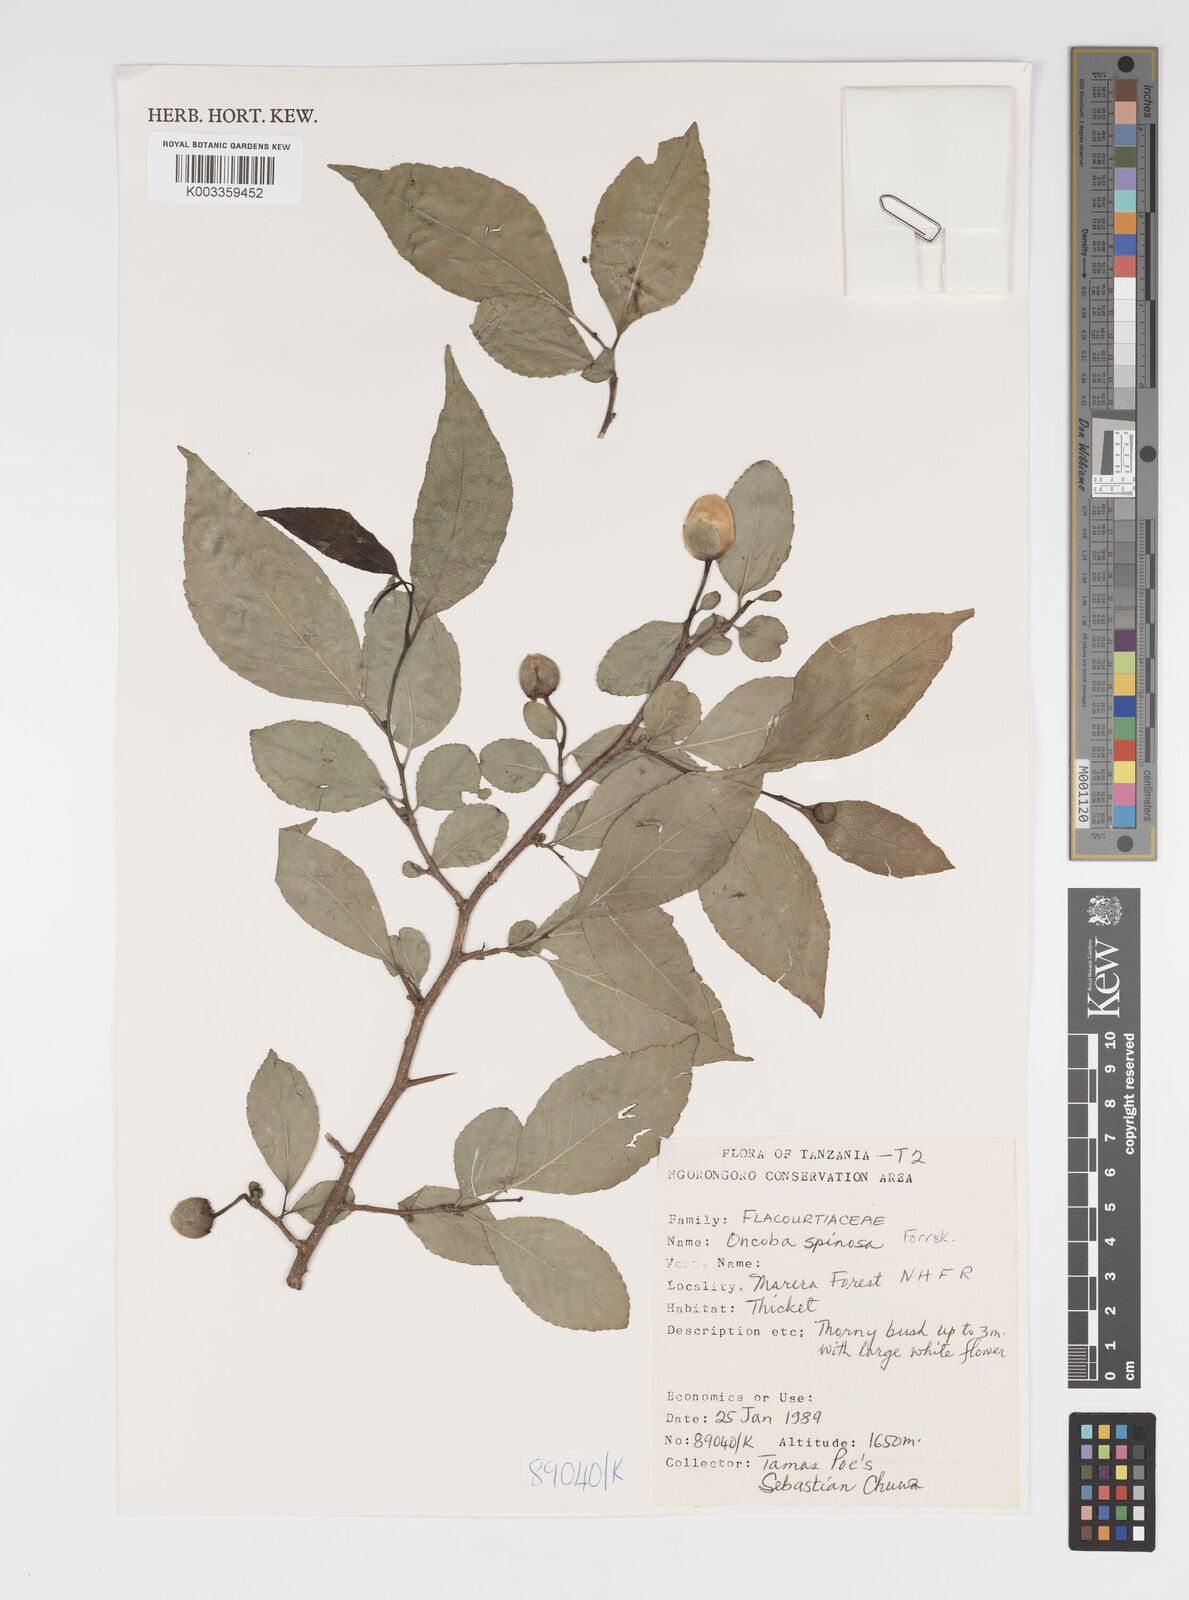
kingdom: Plantae
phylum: Tracheophyta
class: Magnoliopsida
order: Malpighiales
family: Salicaceae
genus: Oncoba
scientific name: Oncoba spinosa
